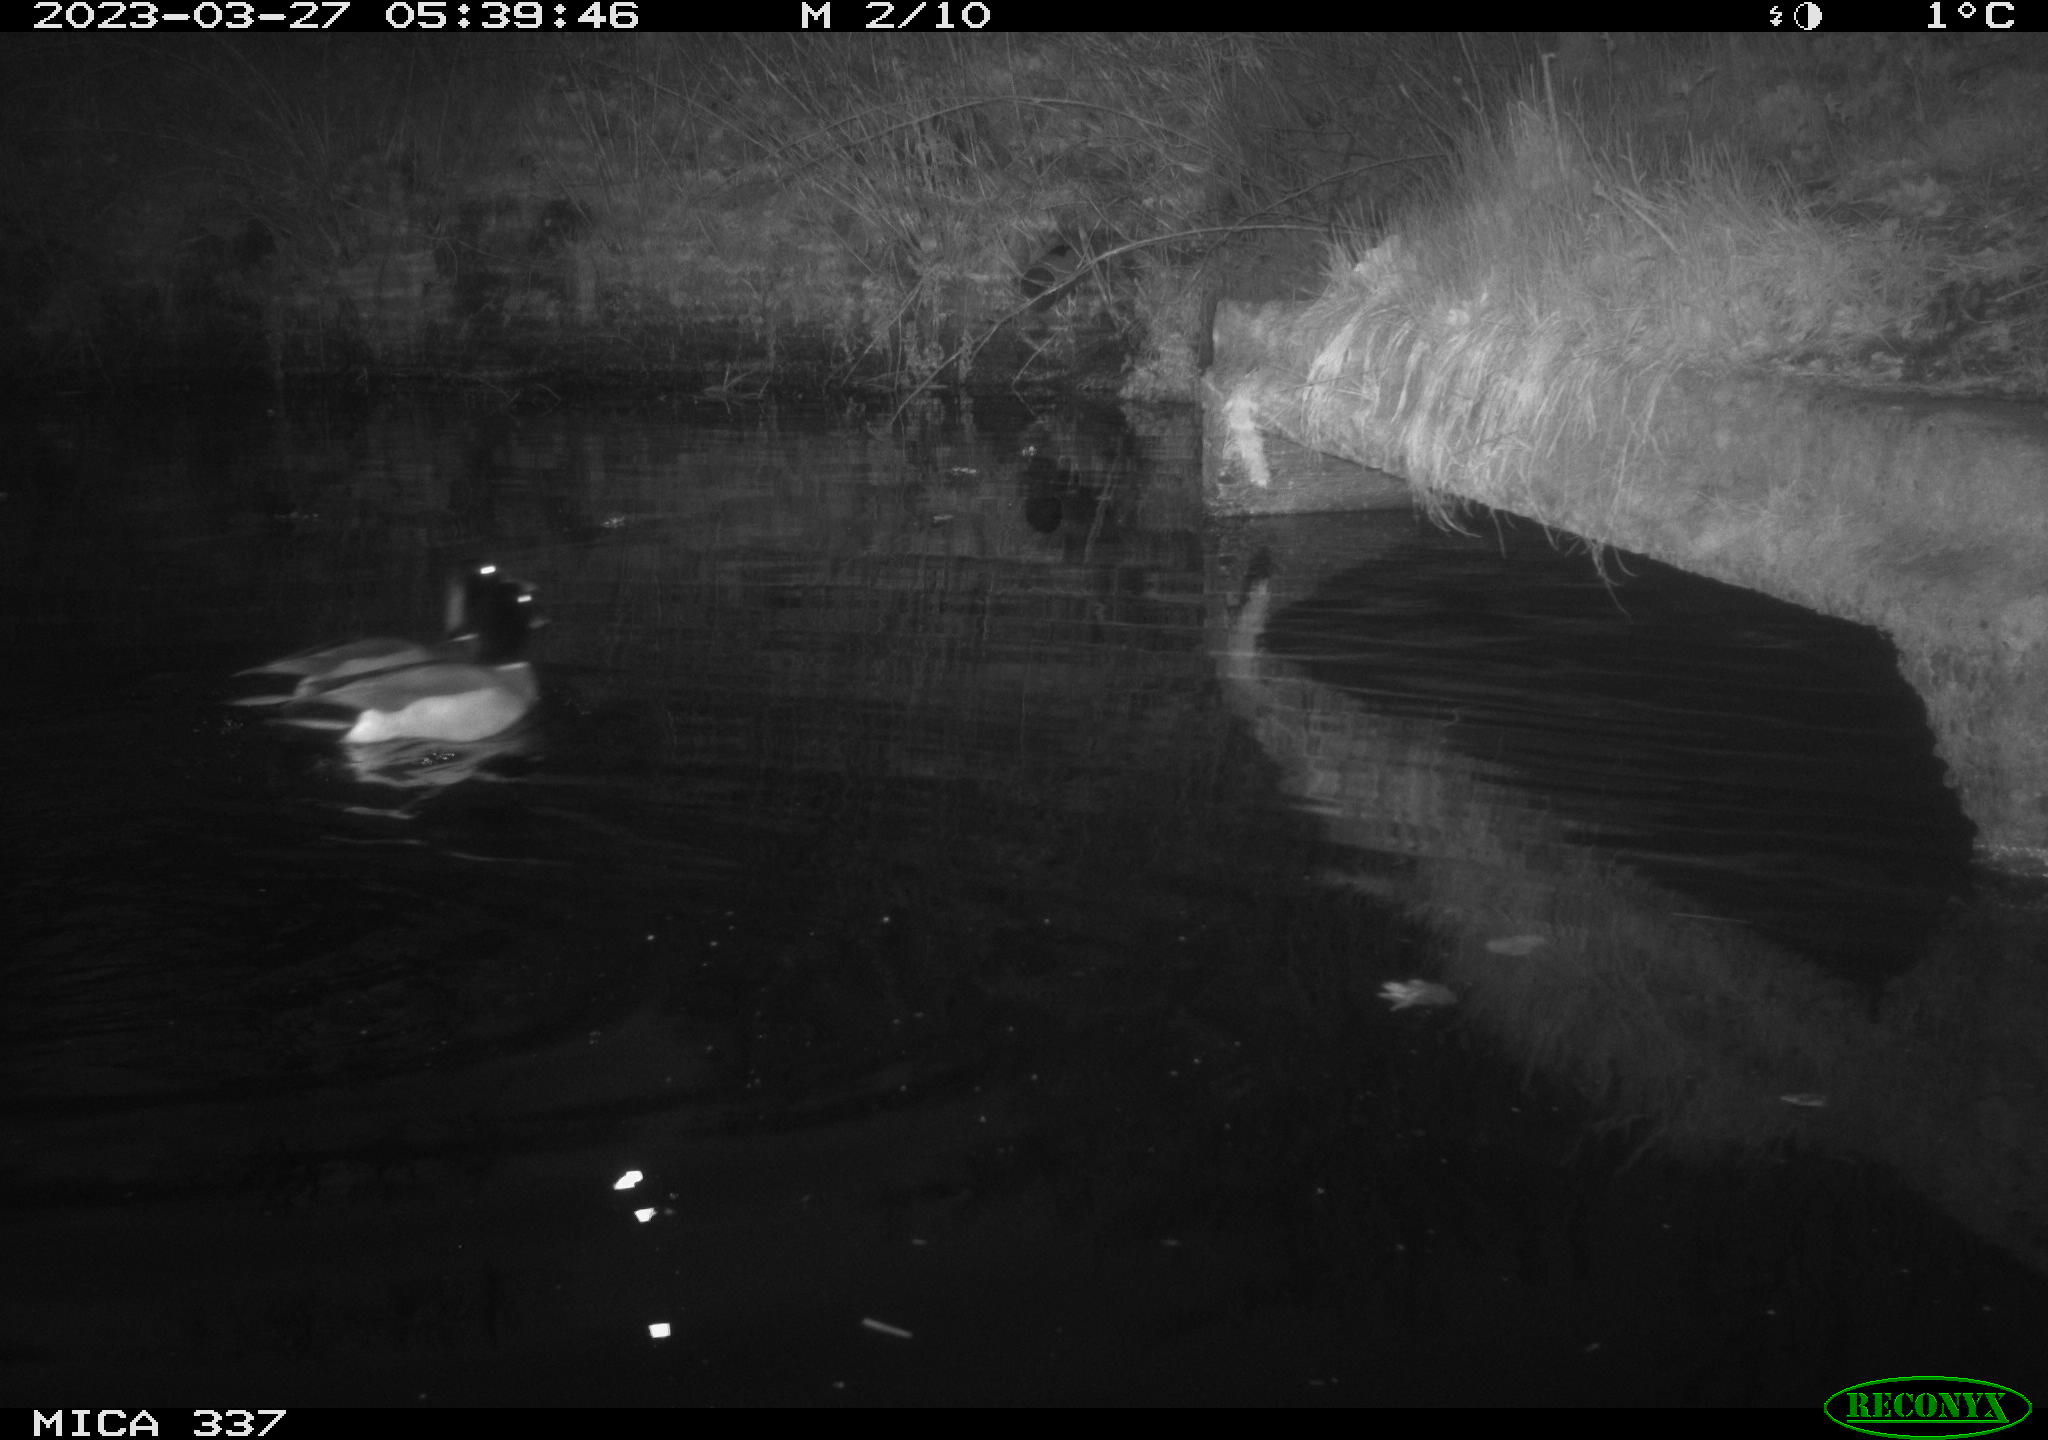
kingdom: Animalia
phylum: Chordata
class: Aves
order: Anseriformes
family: Anatidae
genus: Anas
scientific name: Anas platyrhynchos
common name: Mallard
